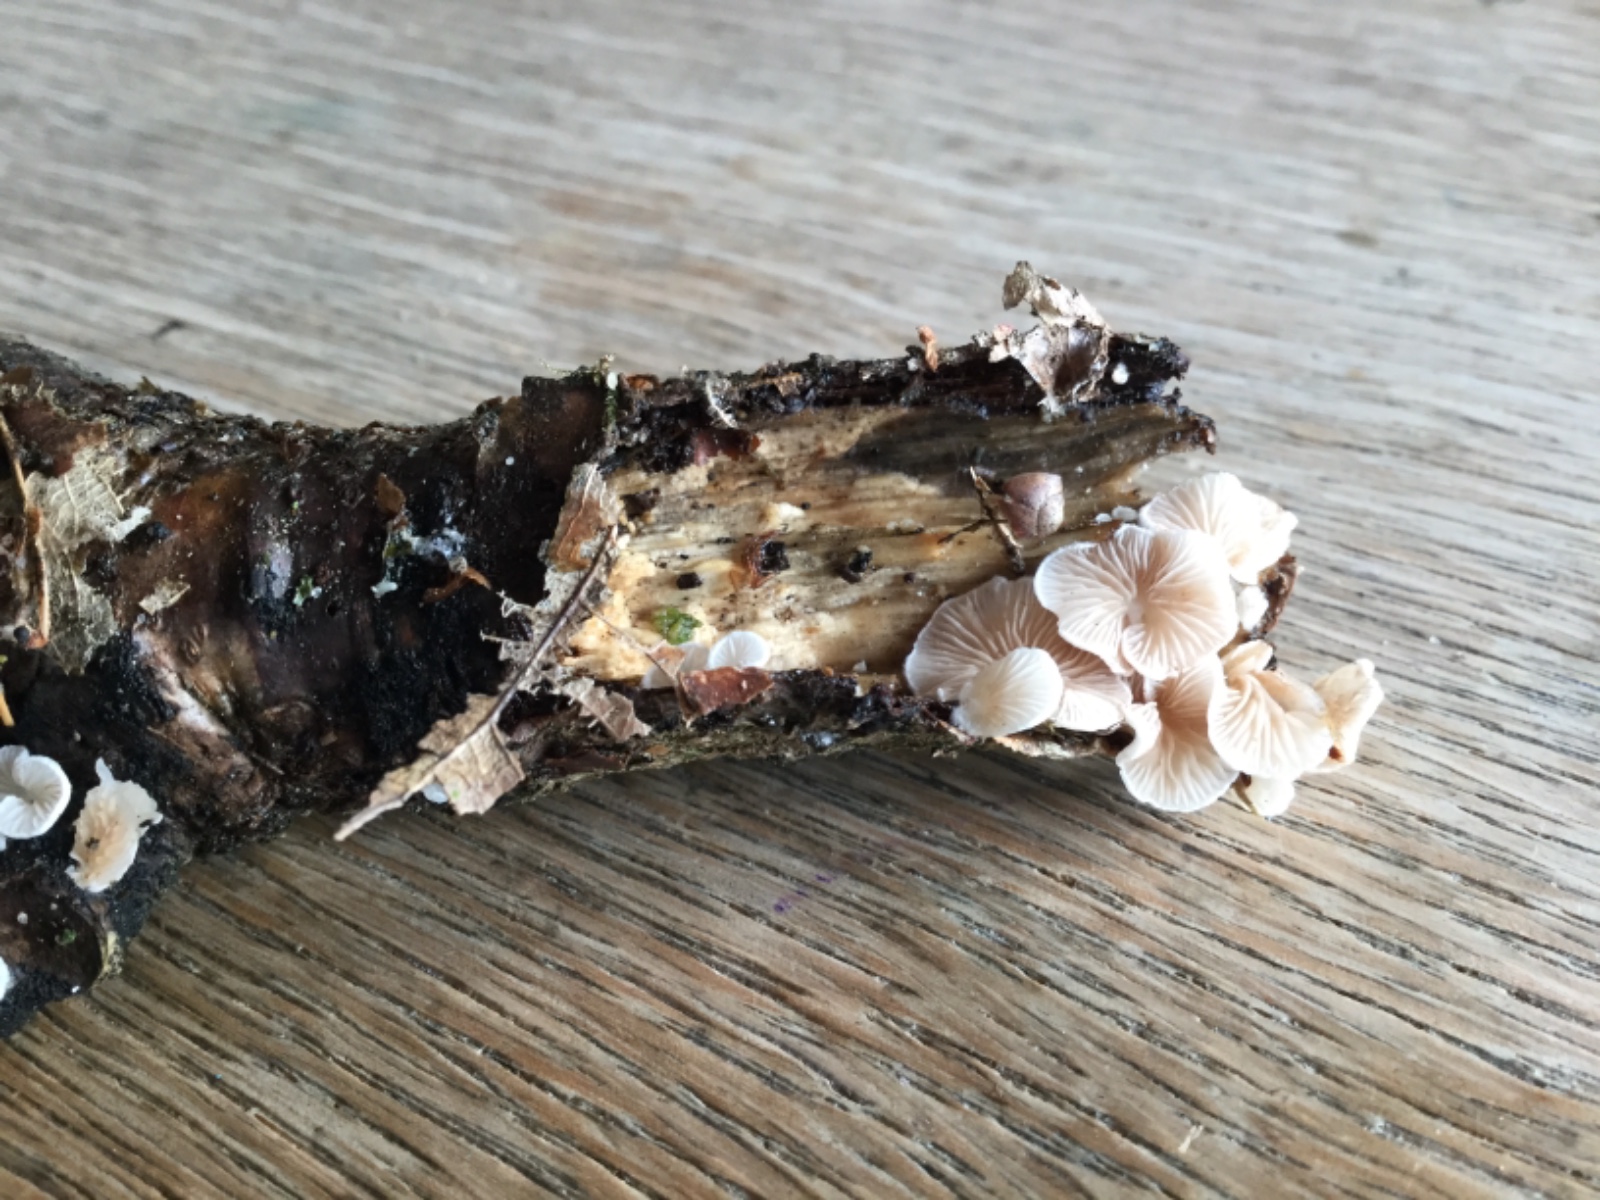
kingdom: Fungi
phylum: Basidiomycota
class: Agaricomycetes
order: Agaricales
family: Crepidotaceae
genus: Crepidotus
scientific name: Crepidotus caspari
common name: Lundells muslingesvamp
